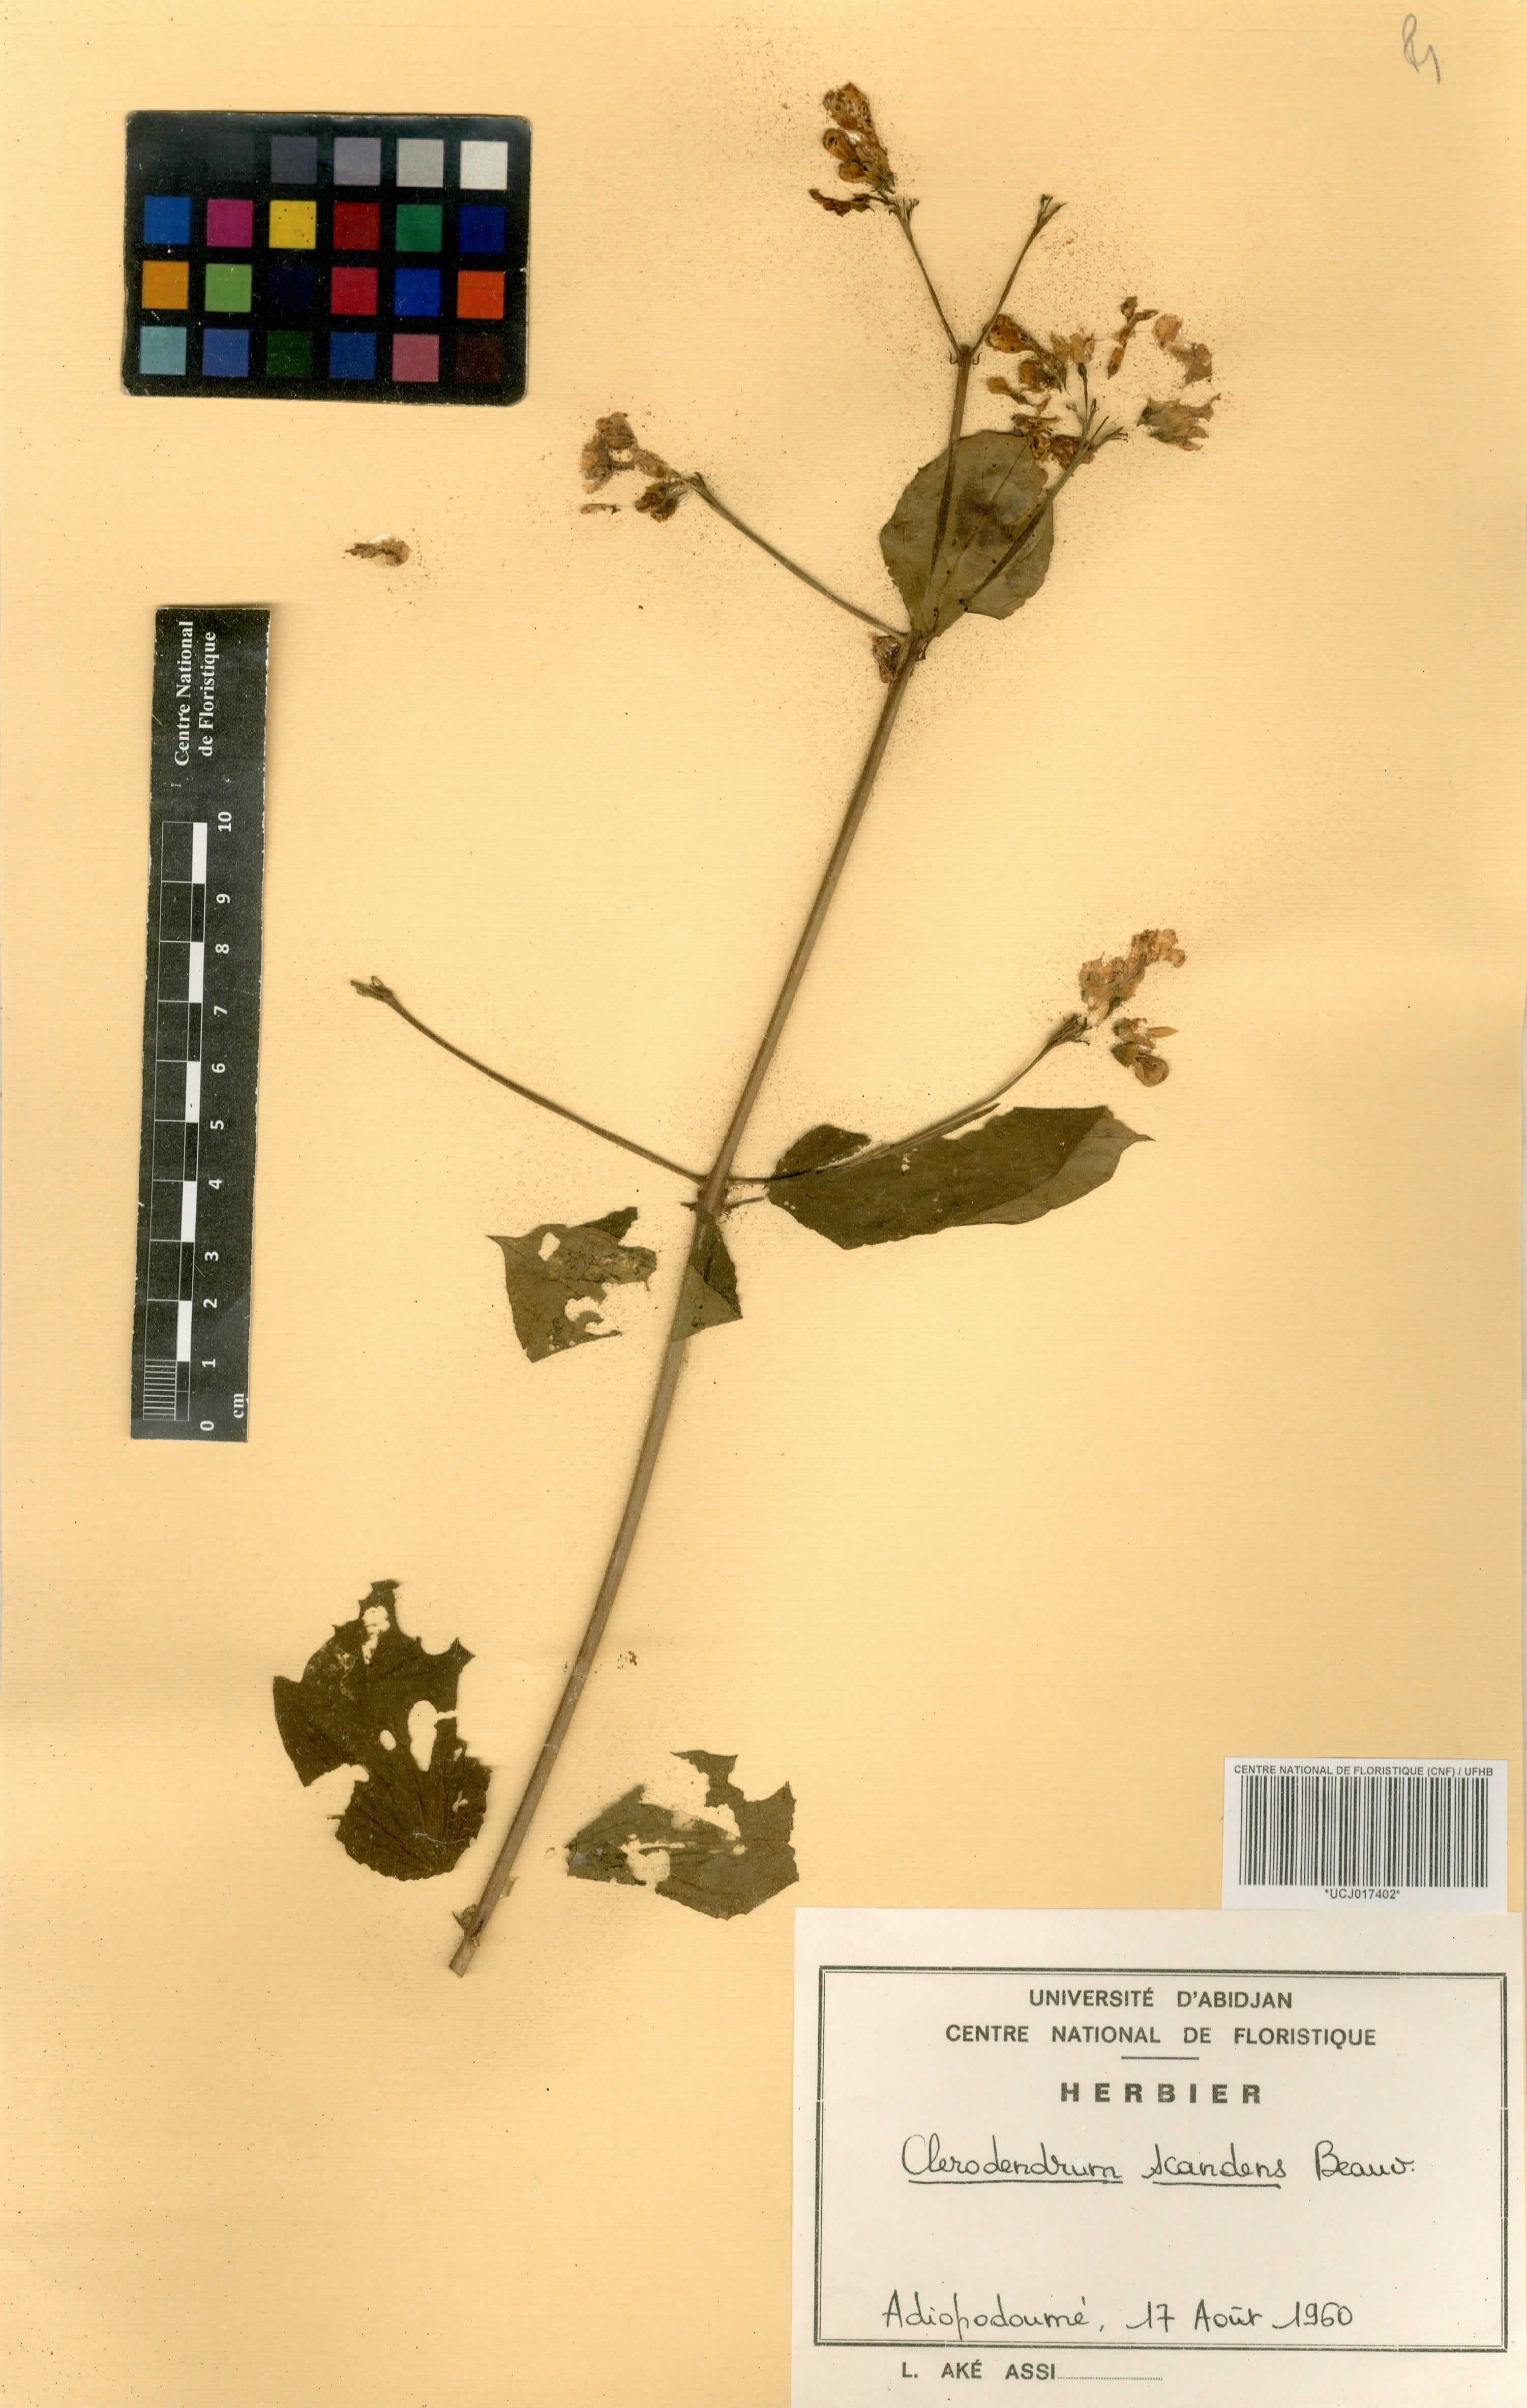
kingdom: Plantae
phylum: Tracheophyta
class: Magnoliopsida
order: Lamiales
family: Lamiaceae
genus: Clerodendrum
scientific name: Clerodendrum umbellatum
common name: Umbel clerodendrum
